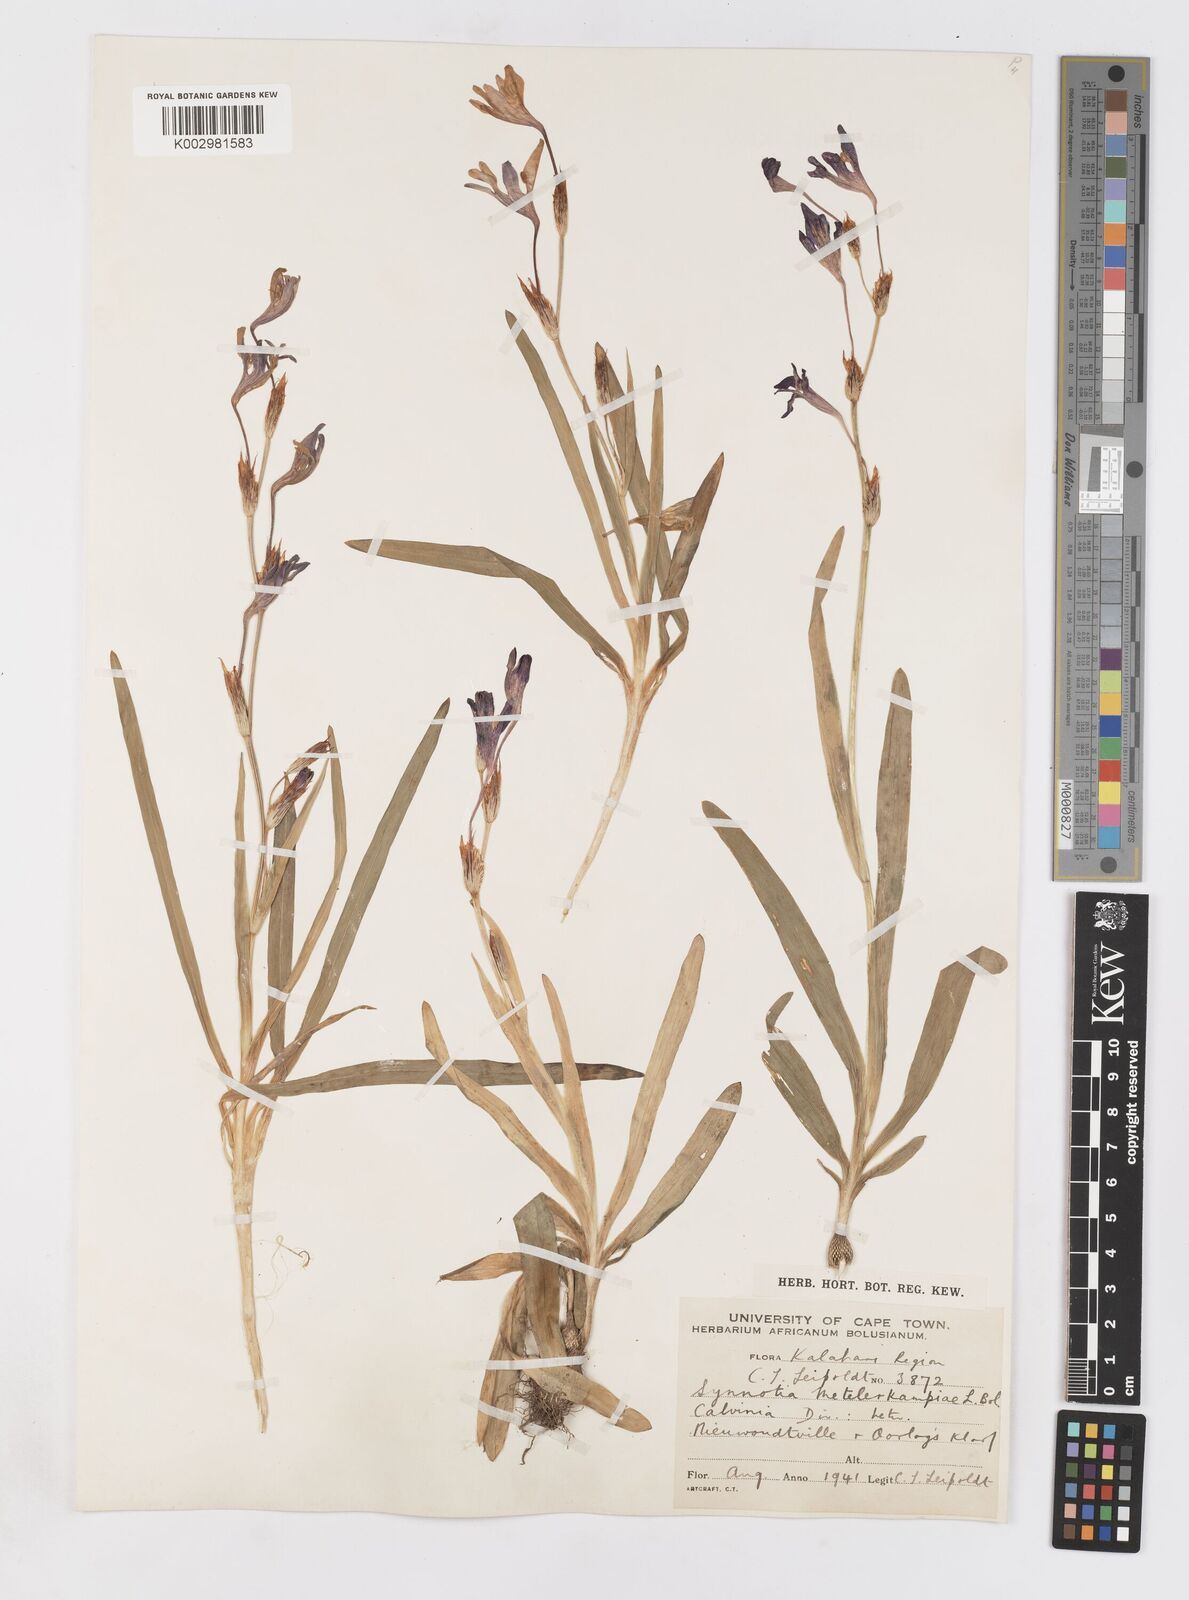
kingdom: Plantae
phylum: Tracheophyta
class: Liliopsida
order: Asparagales
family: Iridaceae
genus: Sparaxis
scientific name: Sparaxis metelerkampiae
